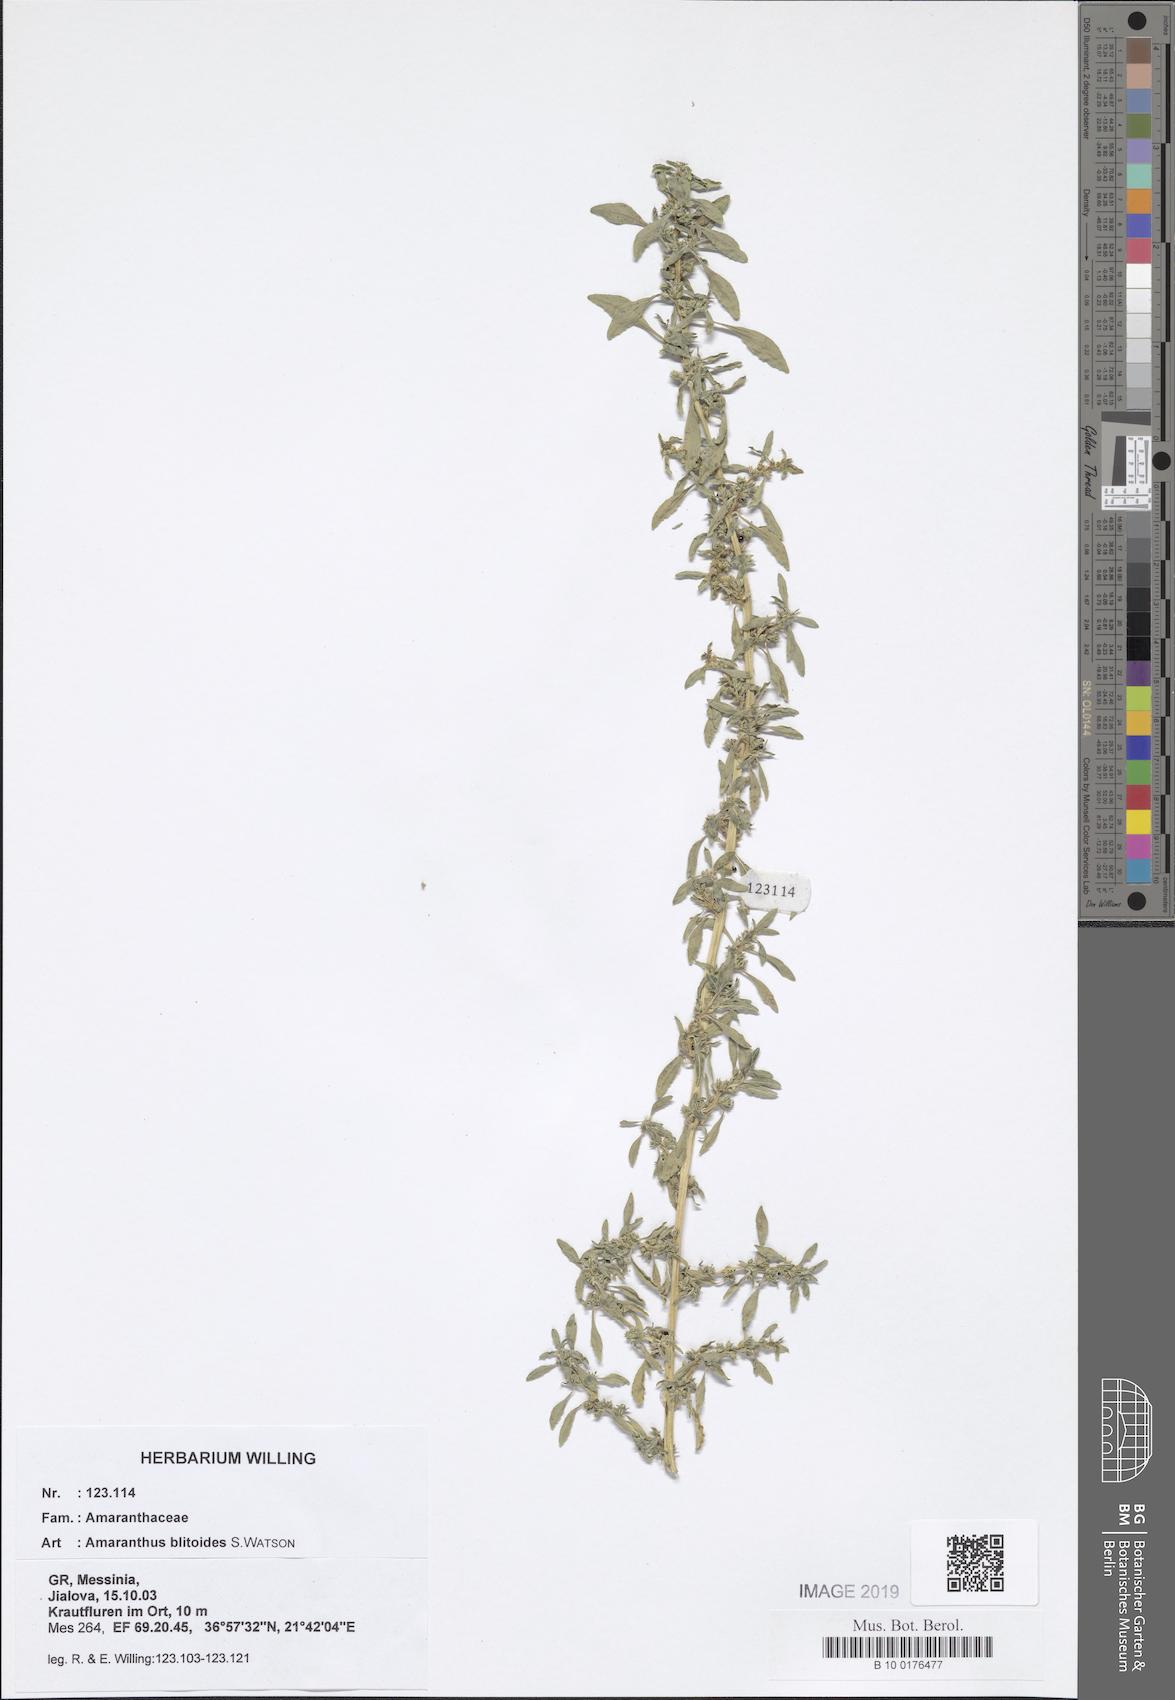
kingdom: Plantae
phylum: Tracheophyta
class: Magnoliopsida
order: Caryophyllales
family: Amaranthaceae
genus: Amaranthus
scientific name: Amaranthus blitoides
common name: Prostrate pigweed
